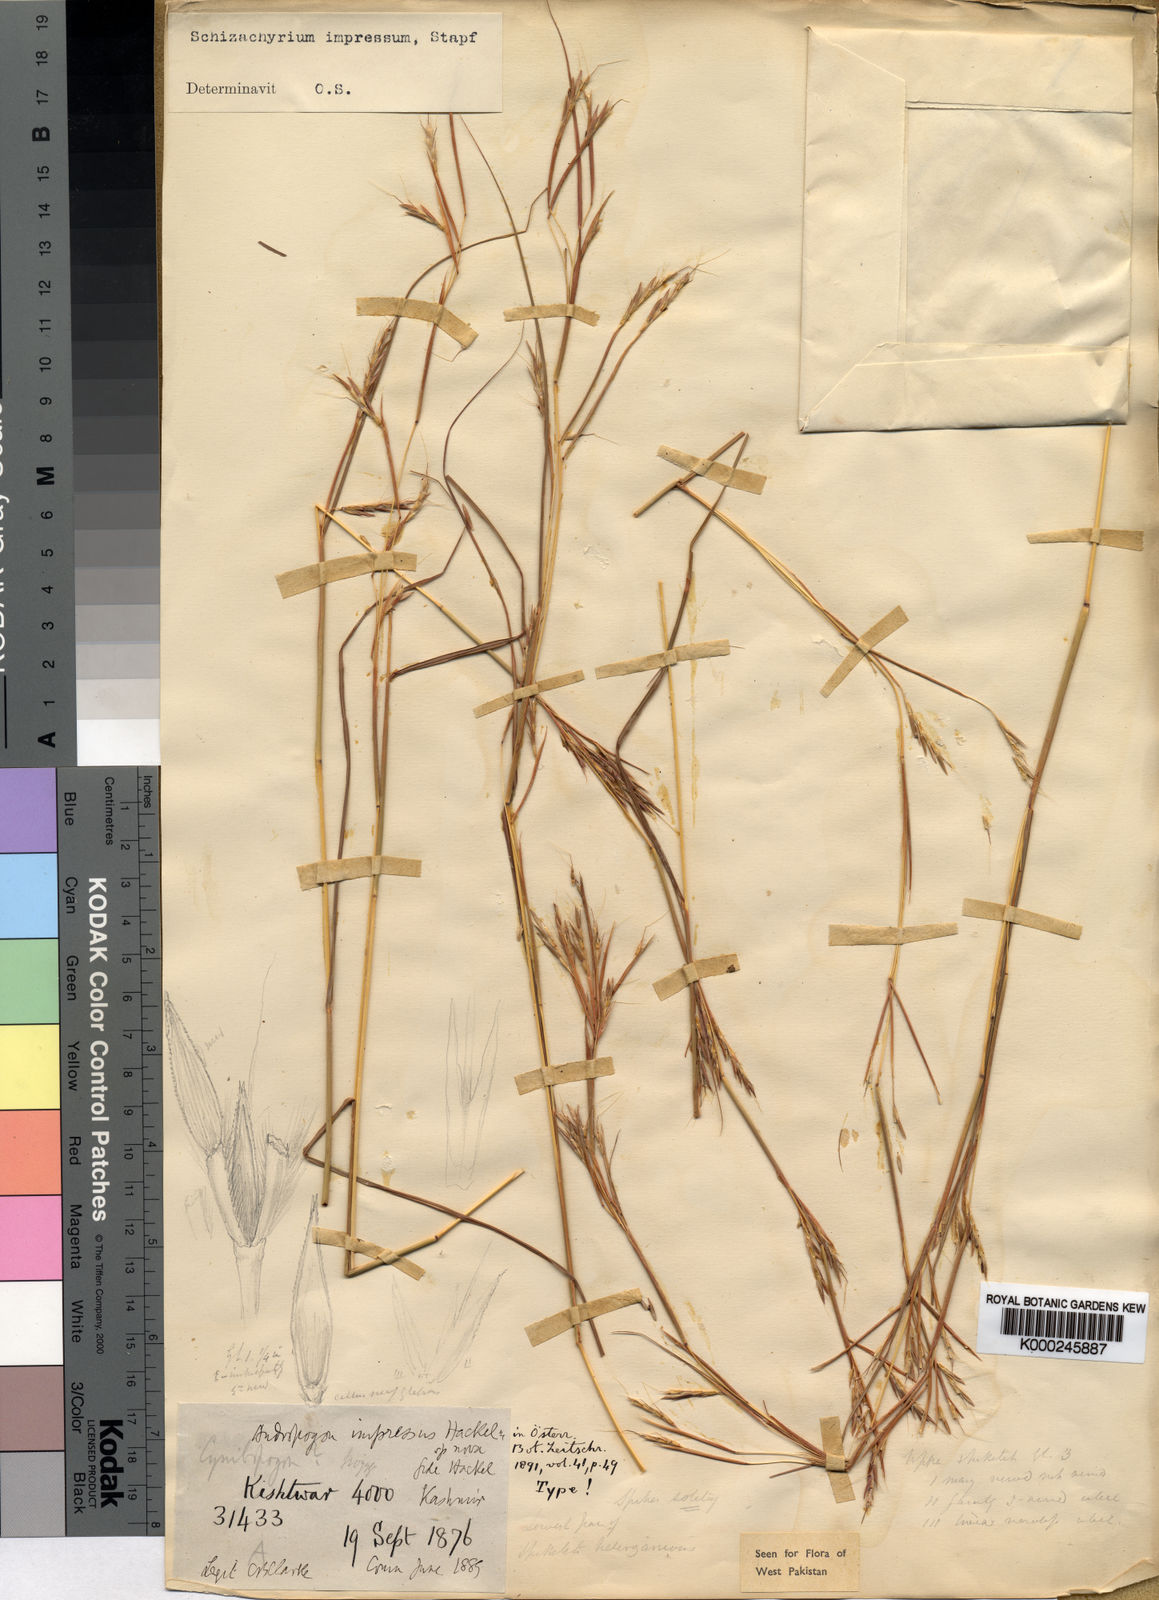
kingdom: Plantae
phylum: Tracheophyta
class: Liliopsida
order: Poales
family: Poaceae
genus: Schizachyrium
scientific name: Schizachyrium impressum
